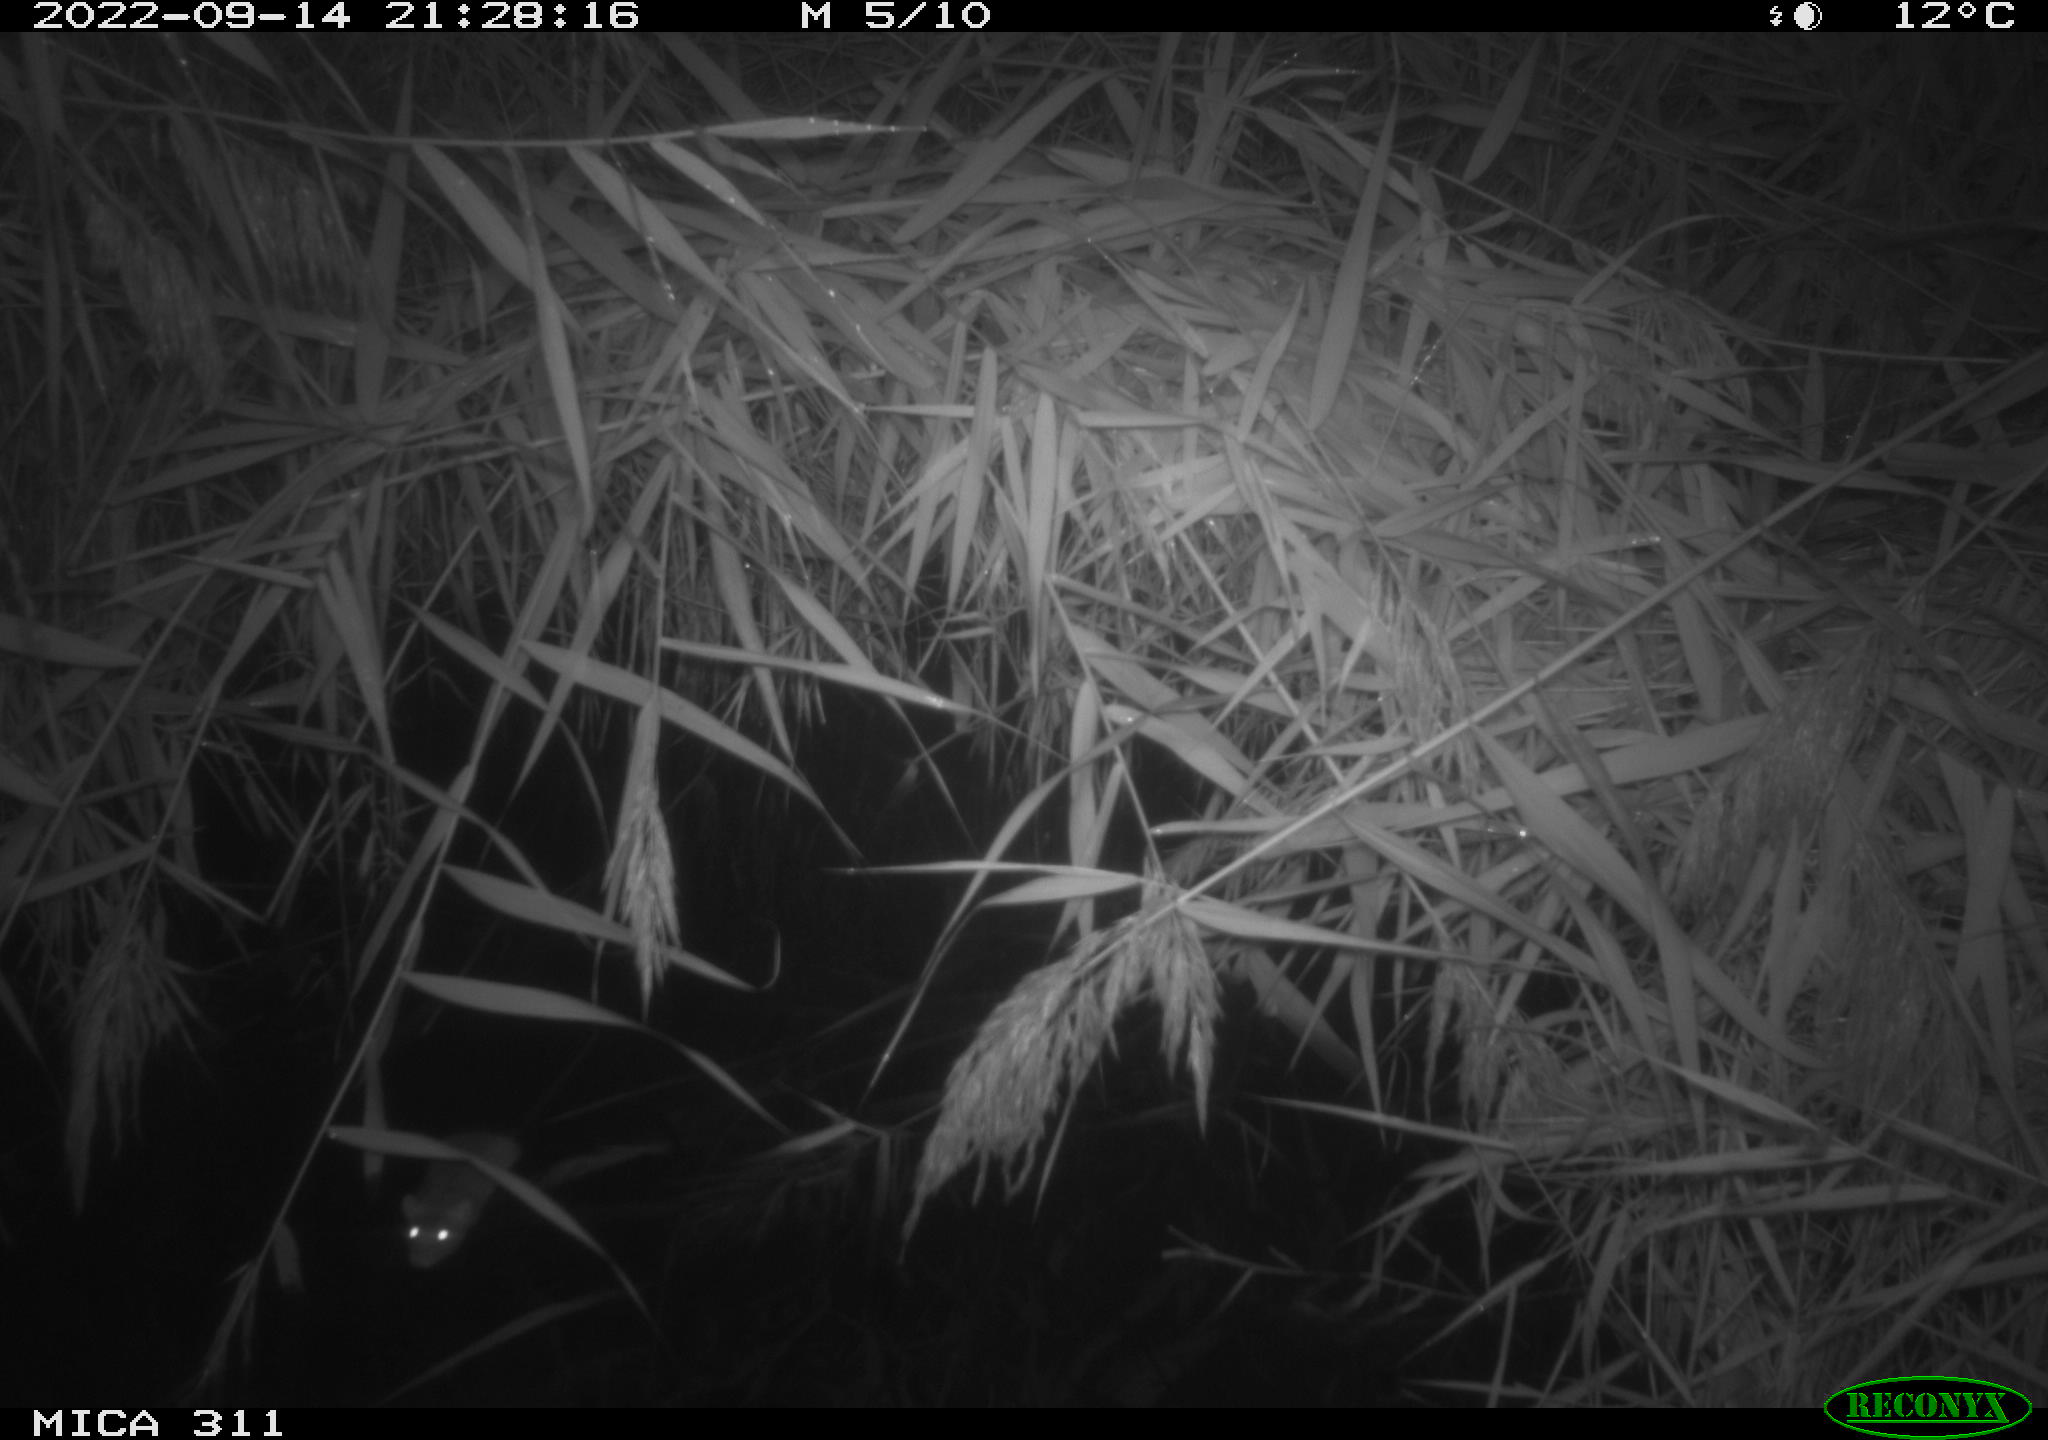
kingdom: Animalia
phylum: Chordata
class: Mammalia
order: Rodentia
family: Muridae
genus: Rattus
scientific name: Rattus norvegicus
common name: Brown rat
